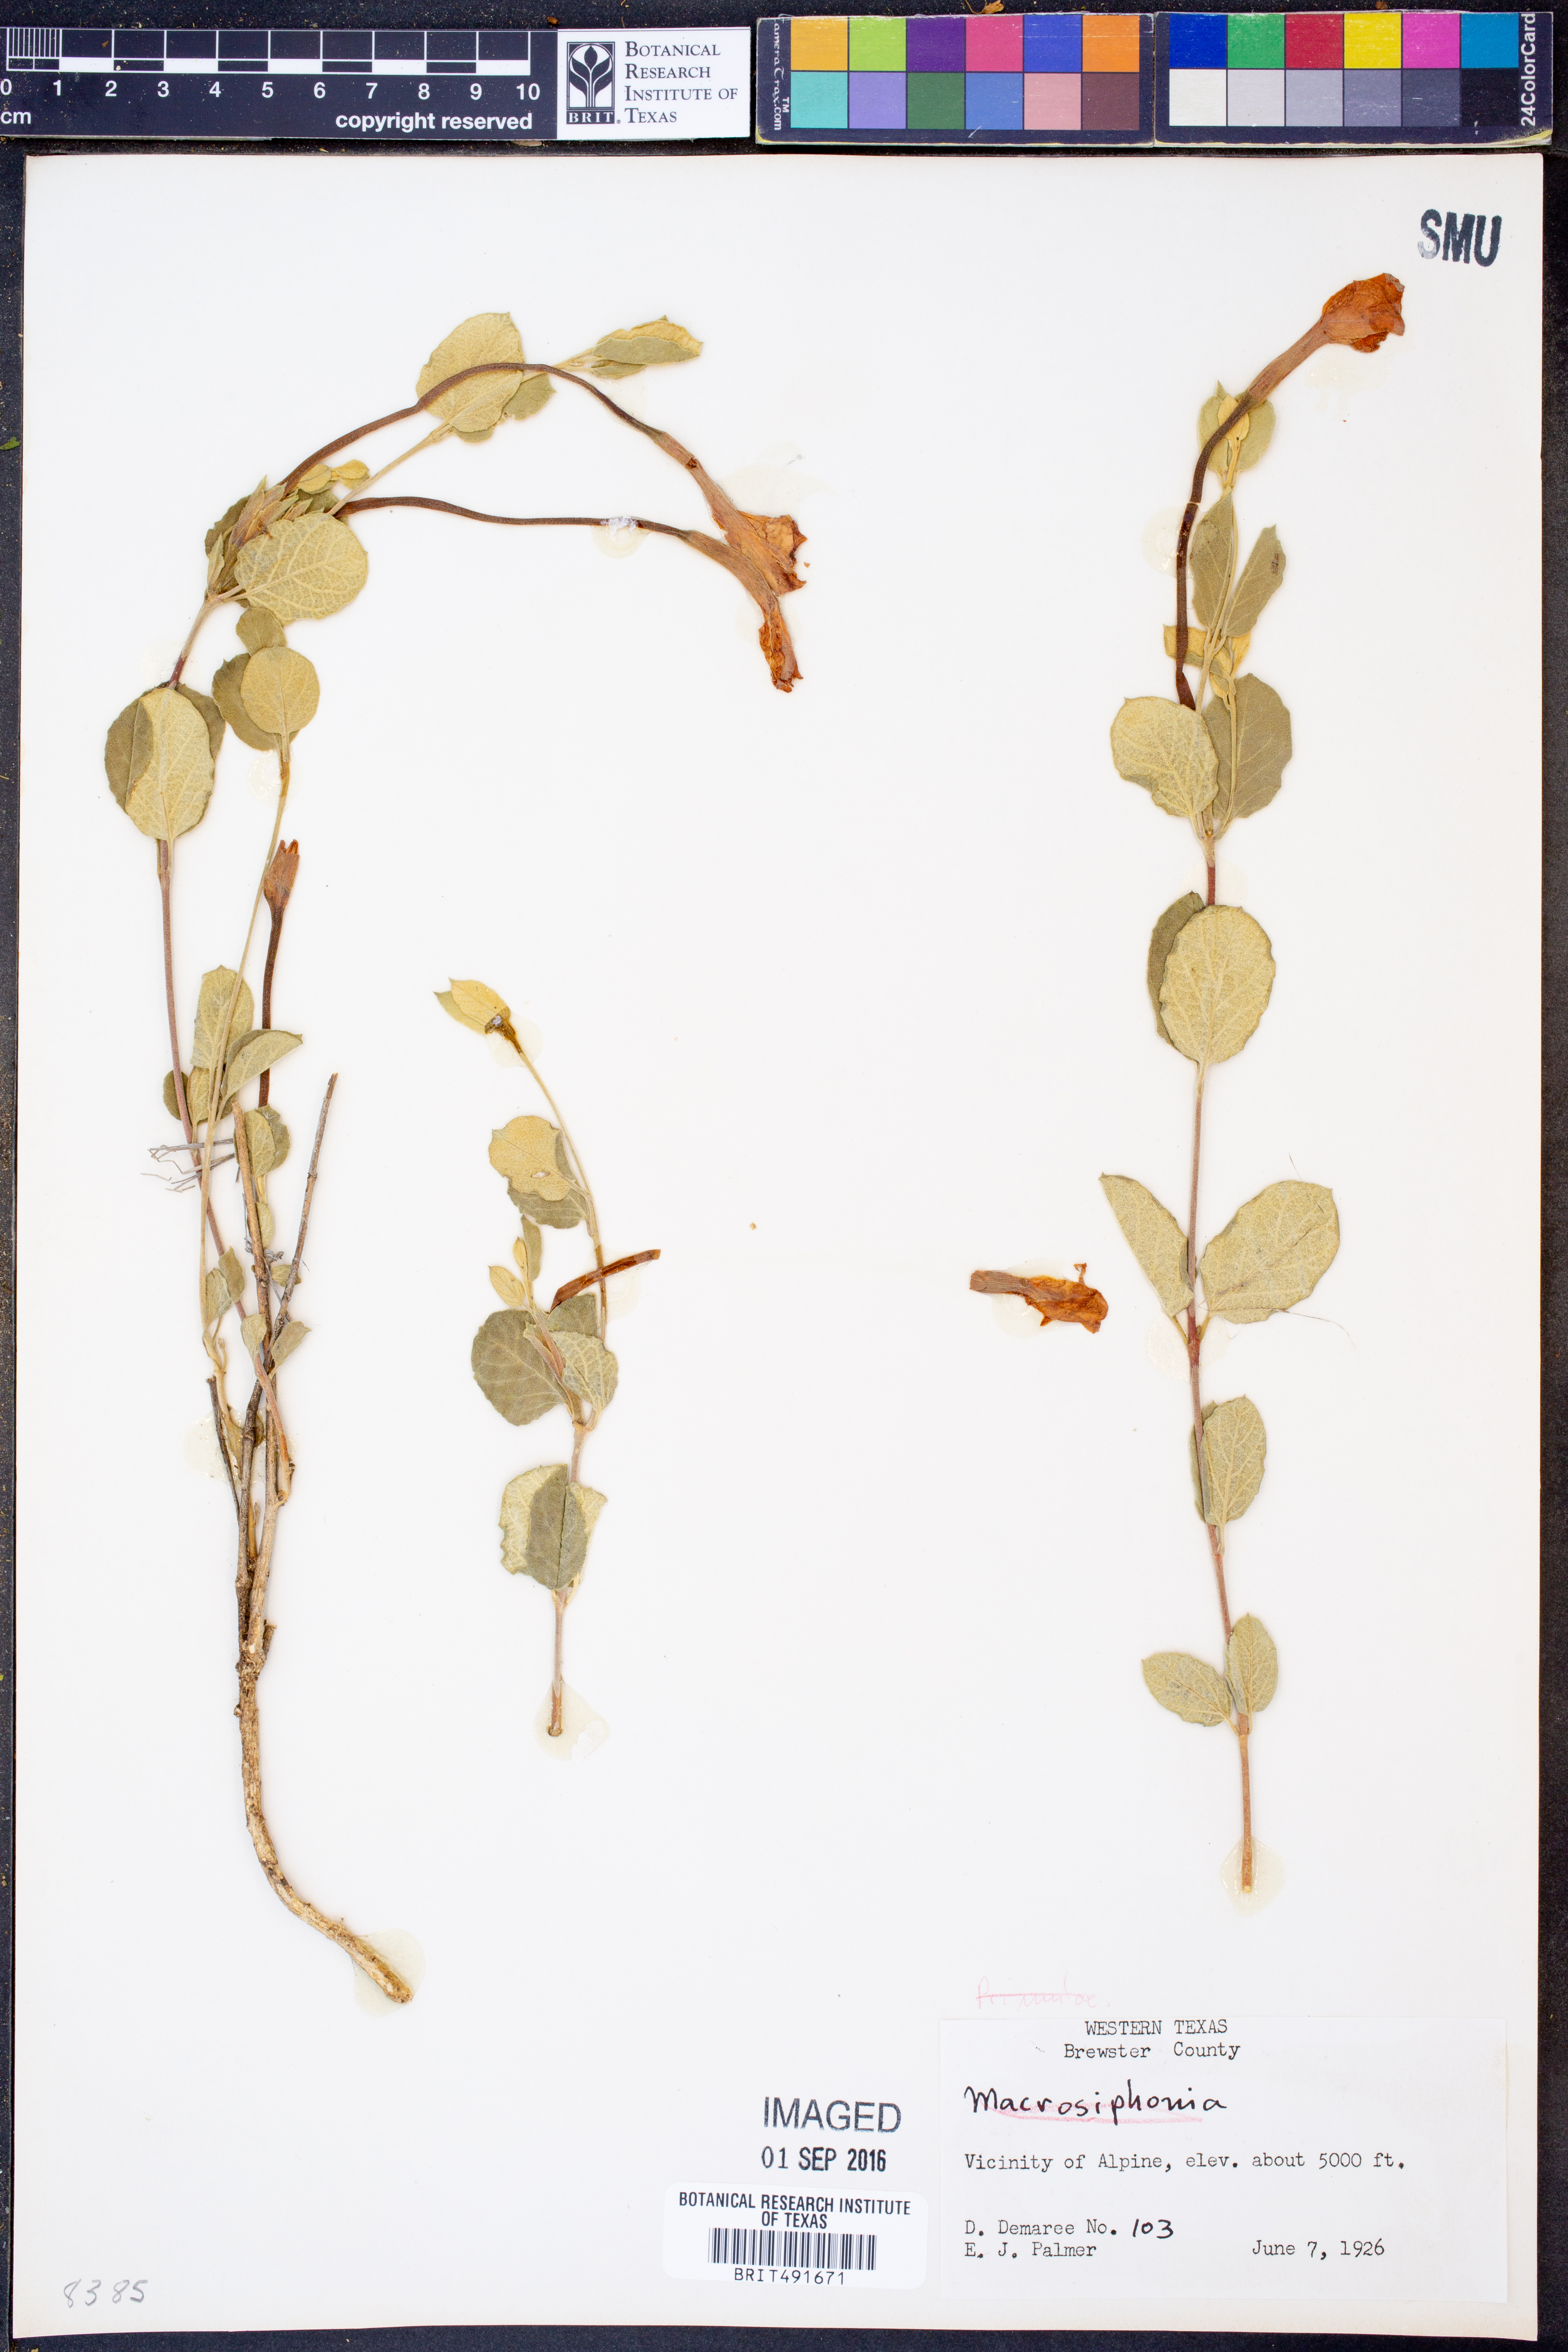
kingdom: Plantae
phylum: Tracheophyta
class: Magnoliopsida
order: Gentianales
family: Apocynaceae
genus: Mandevilla
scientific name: Mandevilla
